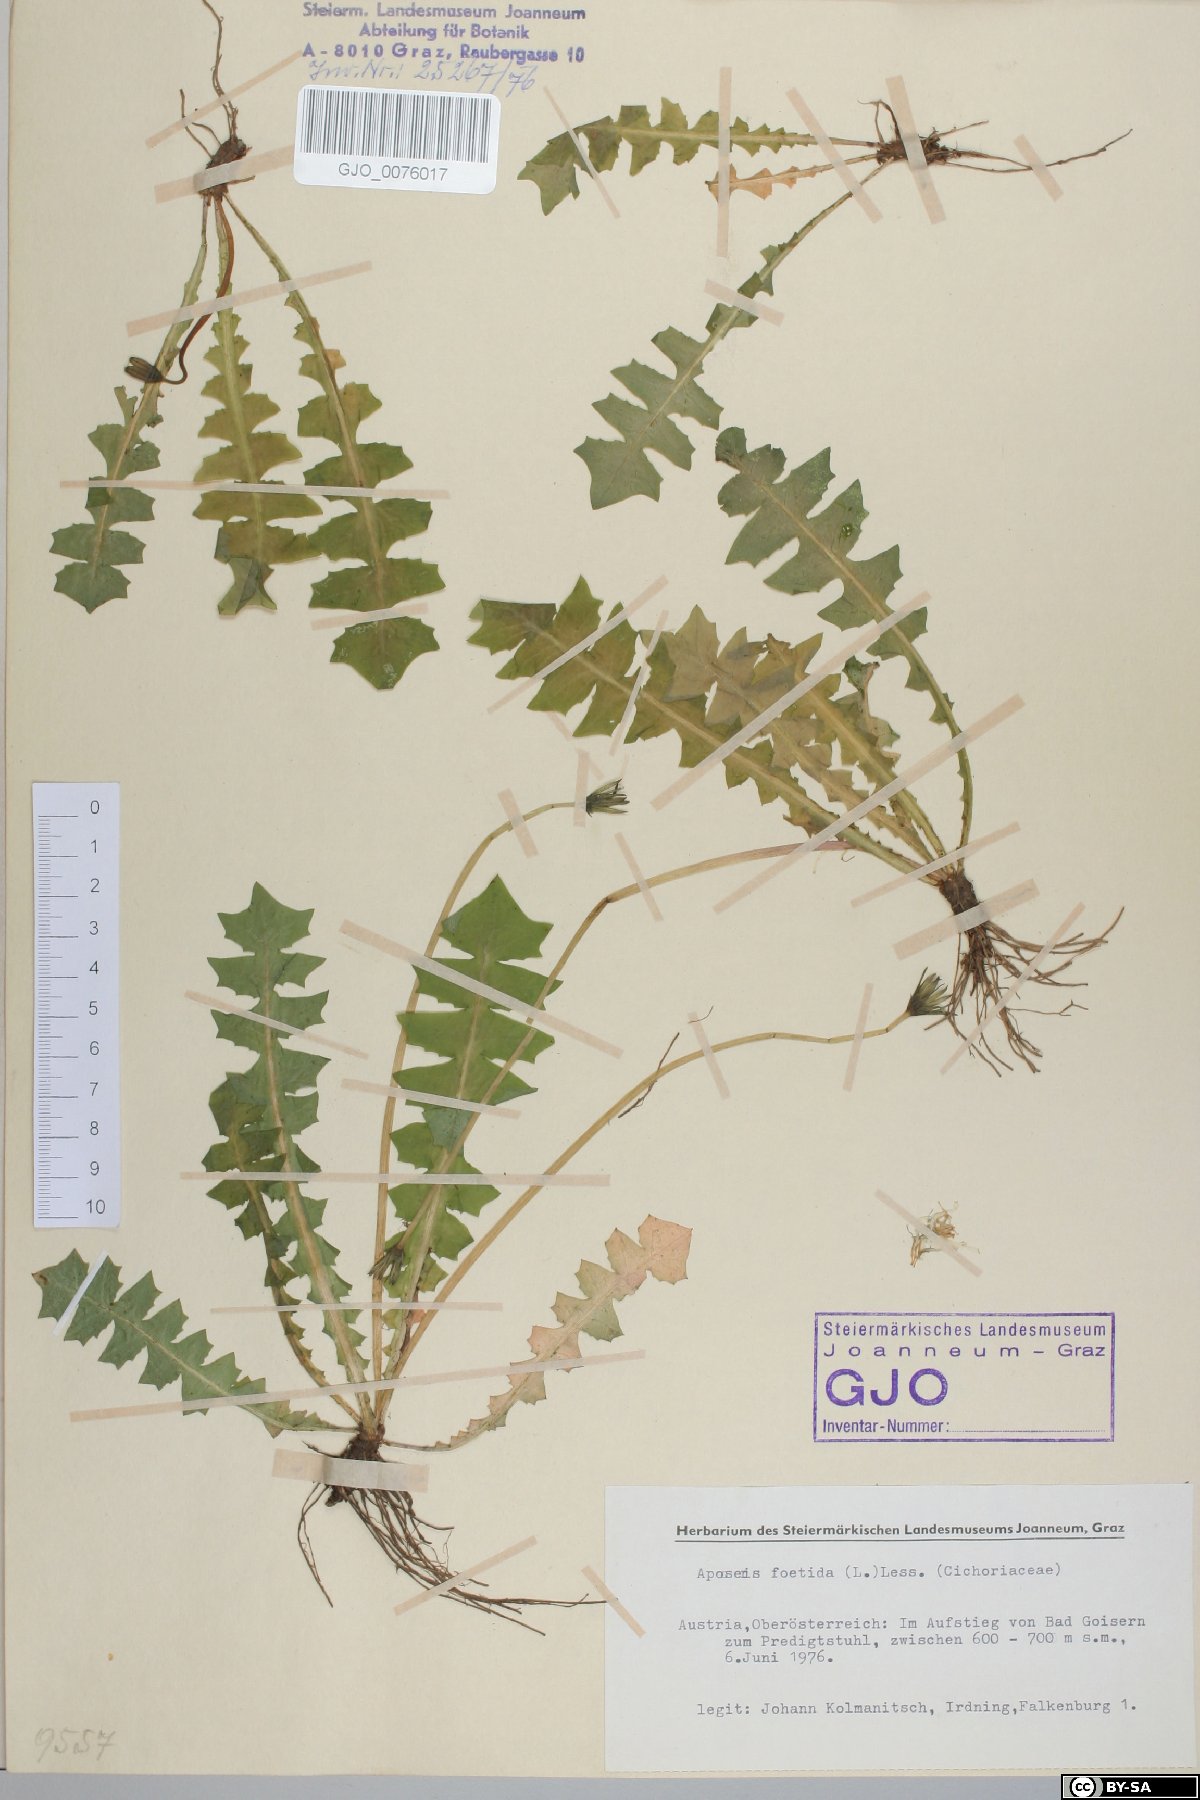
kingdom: Plantae
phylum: Tracheophyta
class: Magnoliopsida
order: Asterales
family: Asteraceae
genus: Aposeris
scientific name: Aposeris foetida
